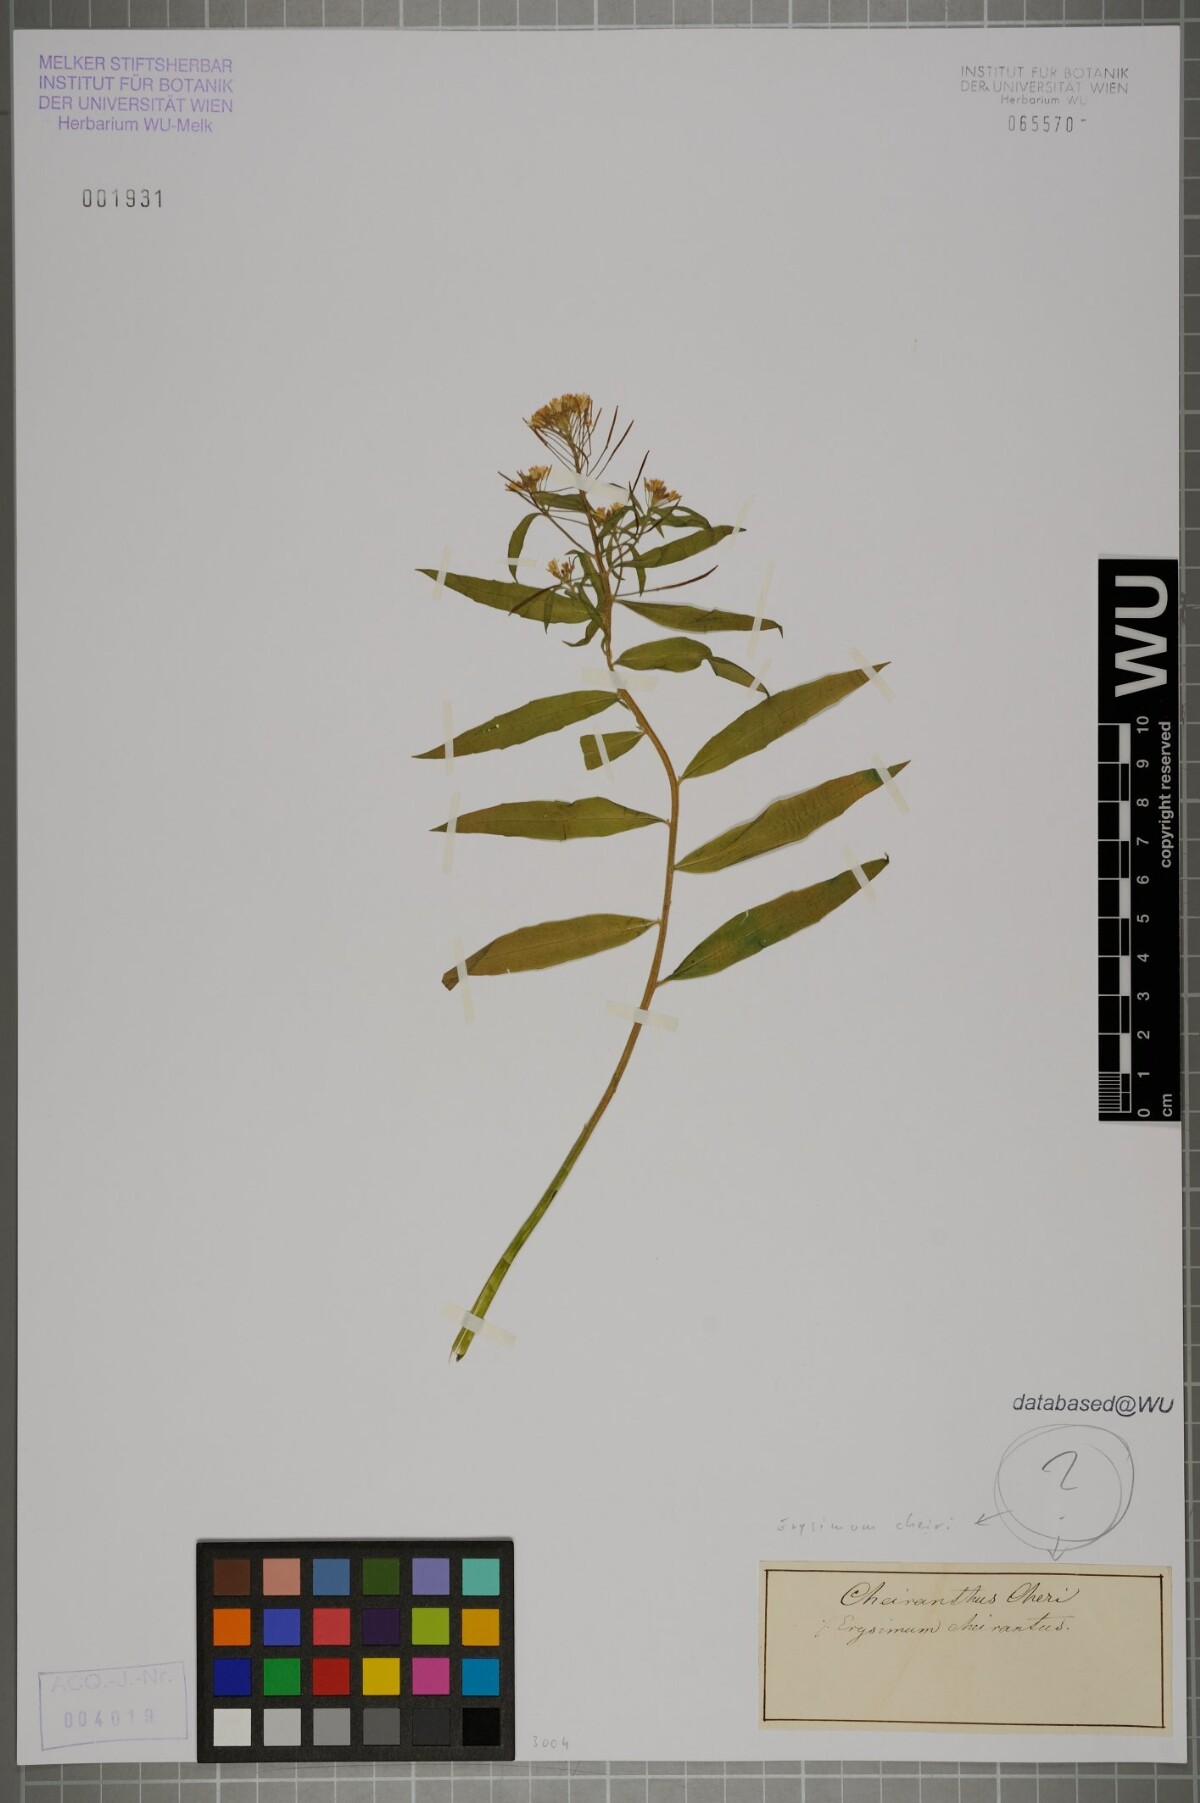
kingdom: Plantae
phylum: Tracheophyta
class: Magnoliopsida
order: Brassicales
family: Brassicaceae
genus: Erysimum
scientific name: Erysimum cheiri
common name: Wallflower
